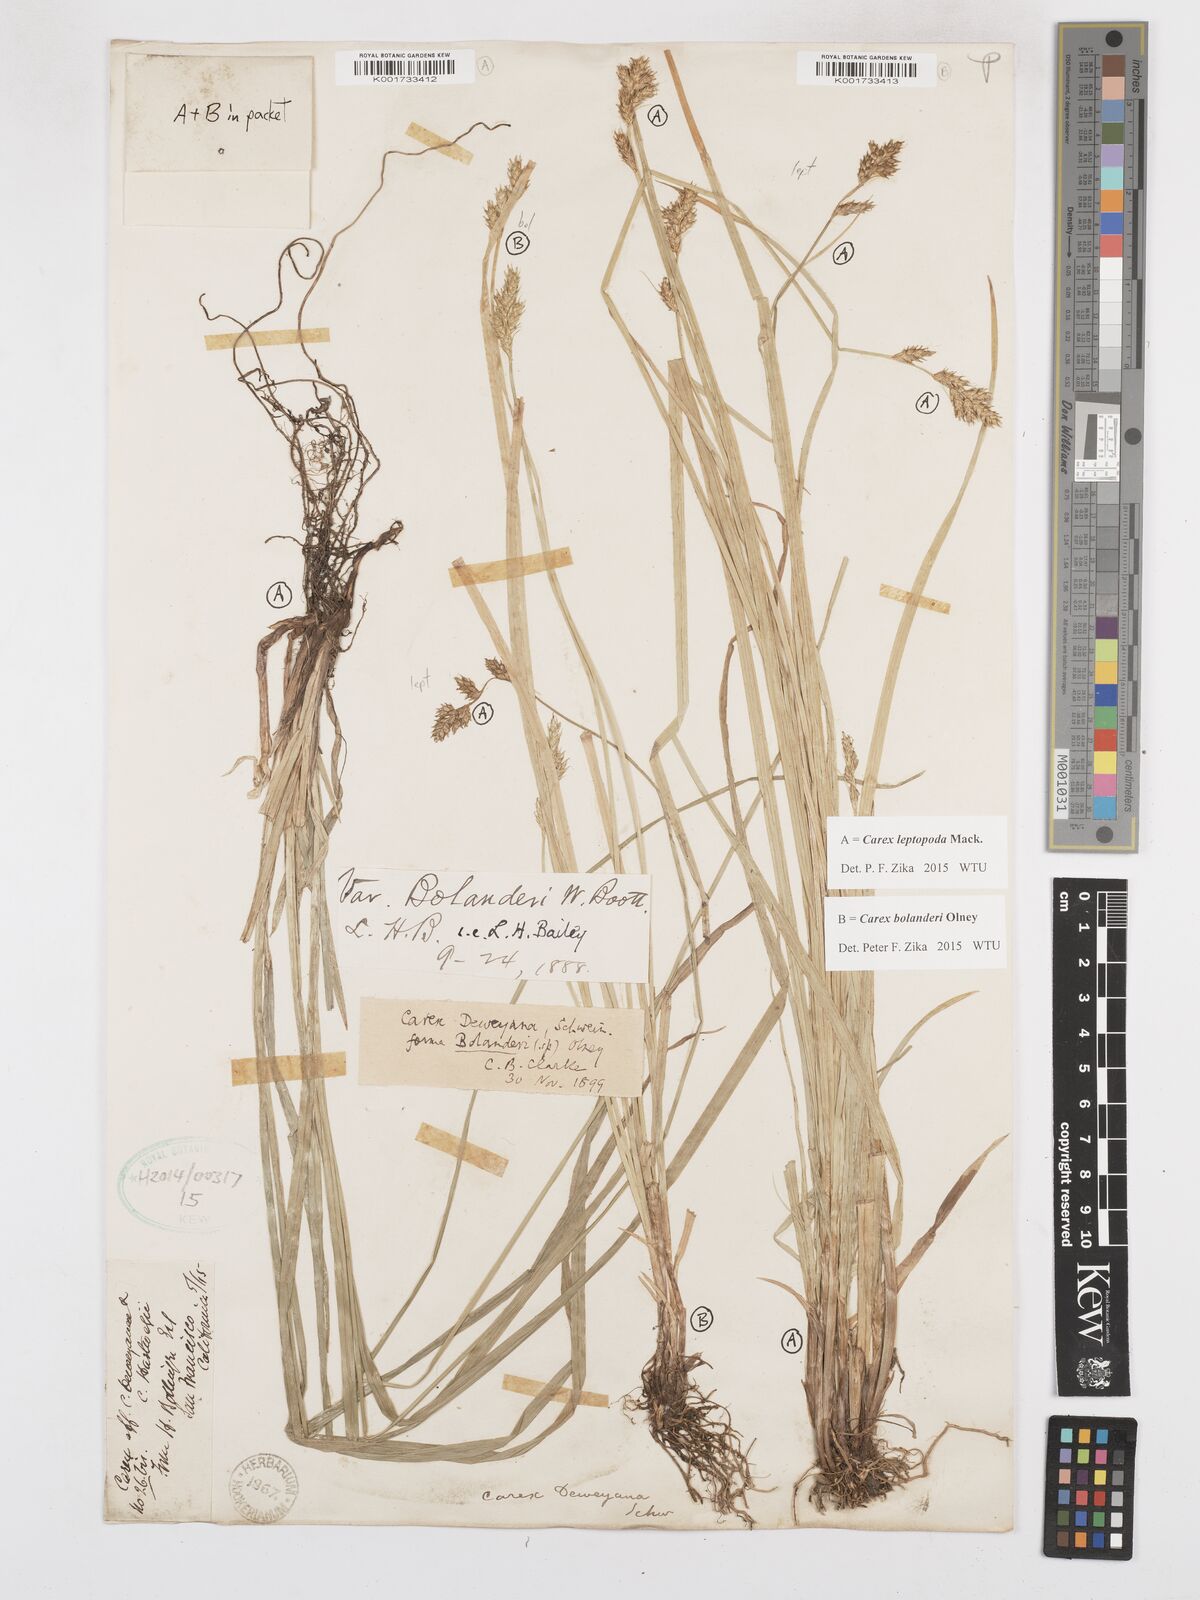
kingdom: Plantae
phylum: Tracheophyta
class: Liliopsida
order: Poales
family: Cyperaceae
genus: Carex
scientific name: Carex leptopoda
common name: Short-scale sedge
